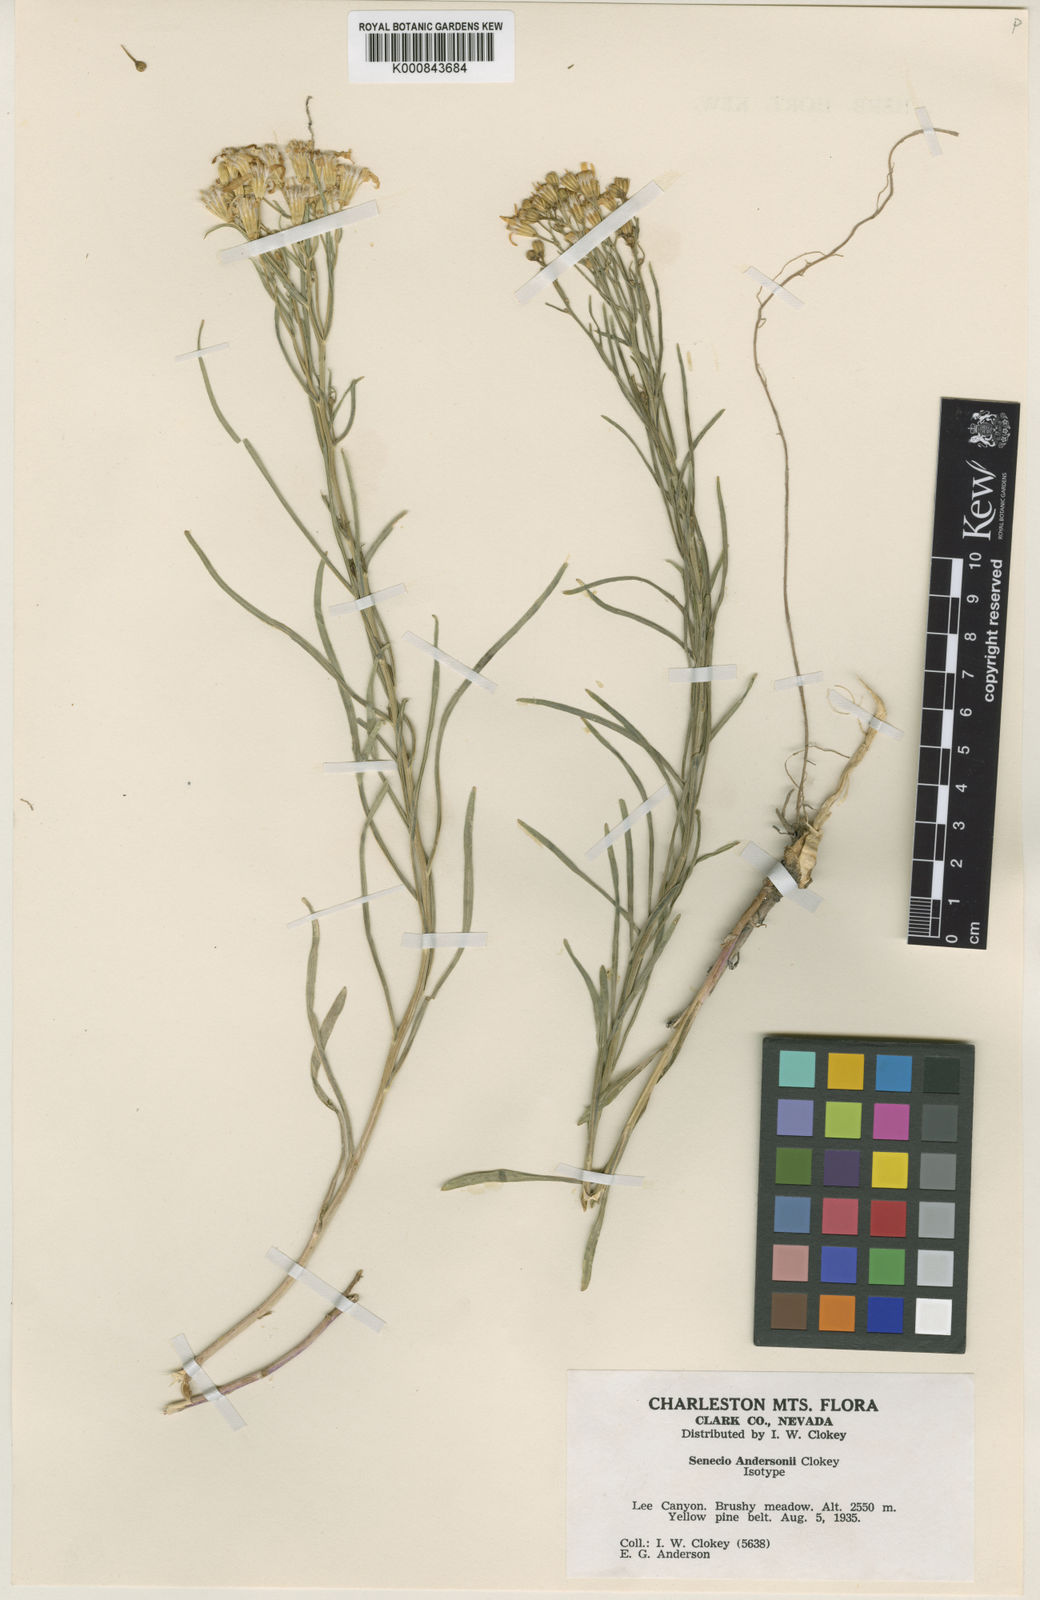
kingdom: Plantae
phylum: Tracheophyta
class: Magnoliopsida
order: Asterales
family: Asteraceae
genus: Senecio
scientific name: Senecio spartioides
